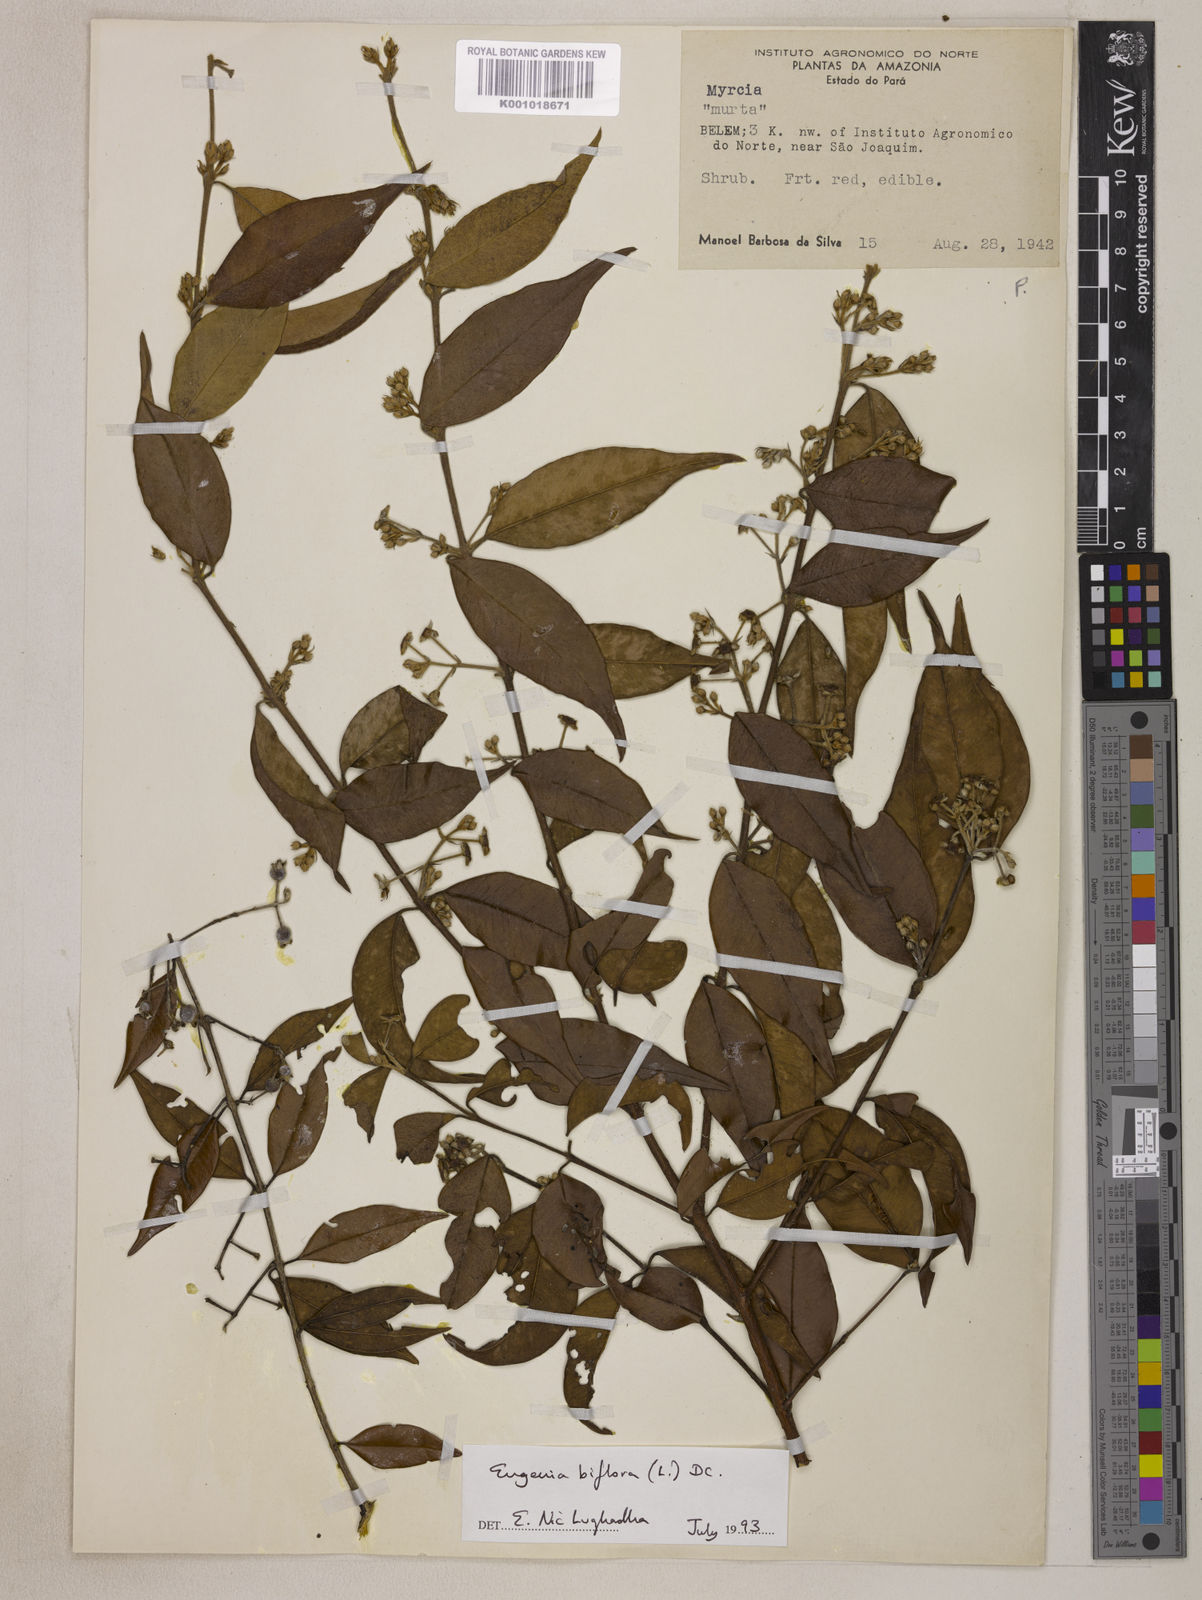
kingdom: Plantae
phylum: Tracheophyta
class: Magnoliopsida
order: Myrtales
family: Myrtaceae
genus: Eugenia
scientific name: Eugenia biflora
